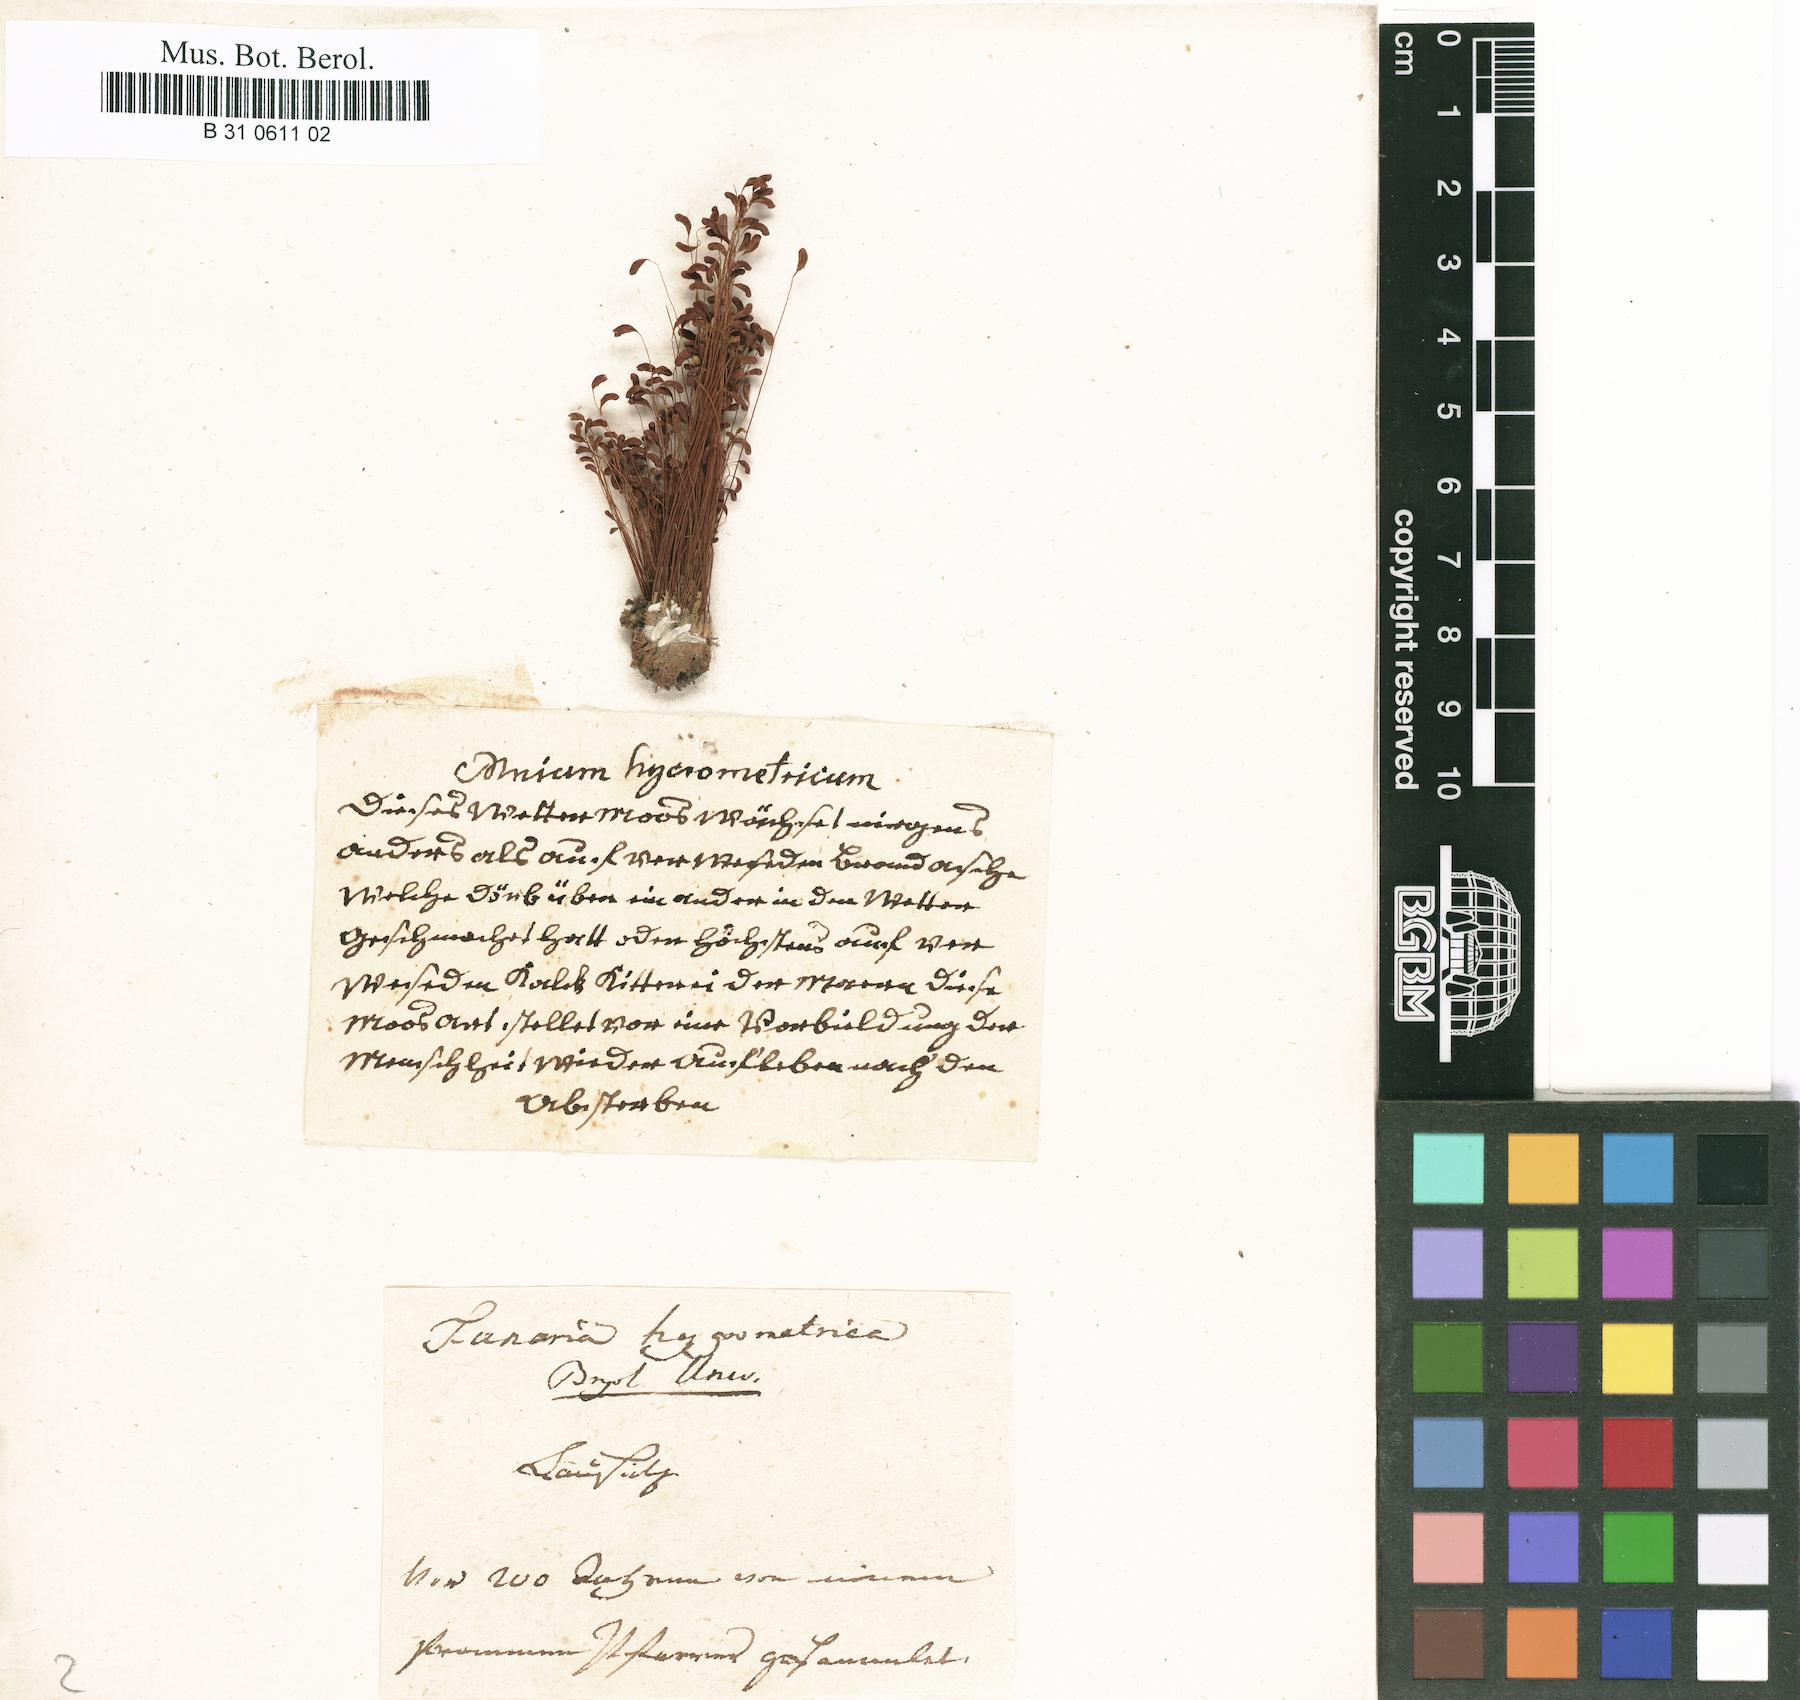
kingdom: Plantae
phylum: Bryophyta
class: Bryopsida
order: Funariales
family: Funariaceae
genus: Funaria
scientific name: Funaria hygrometrica
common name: Common cord moss
